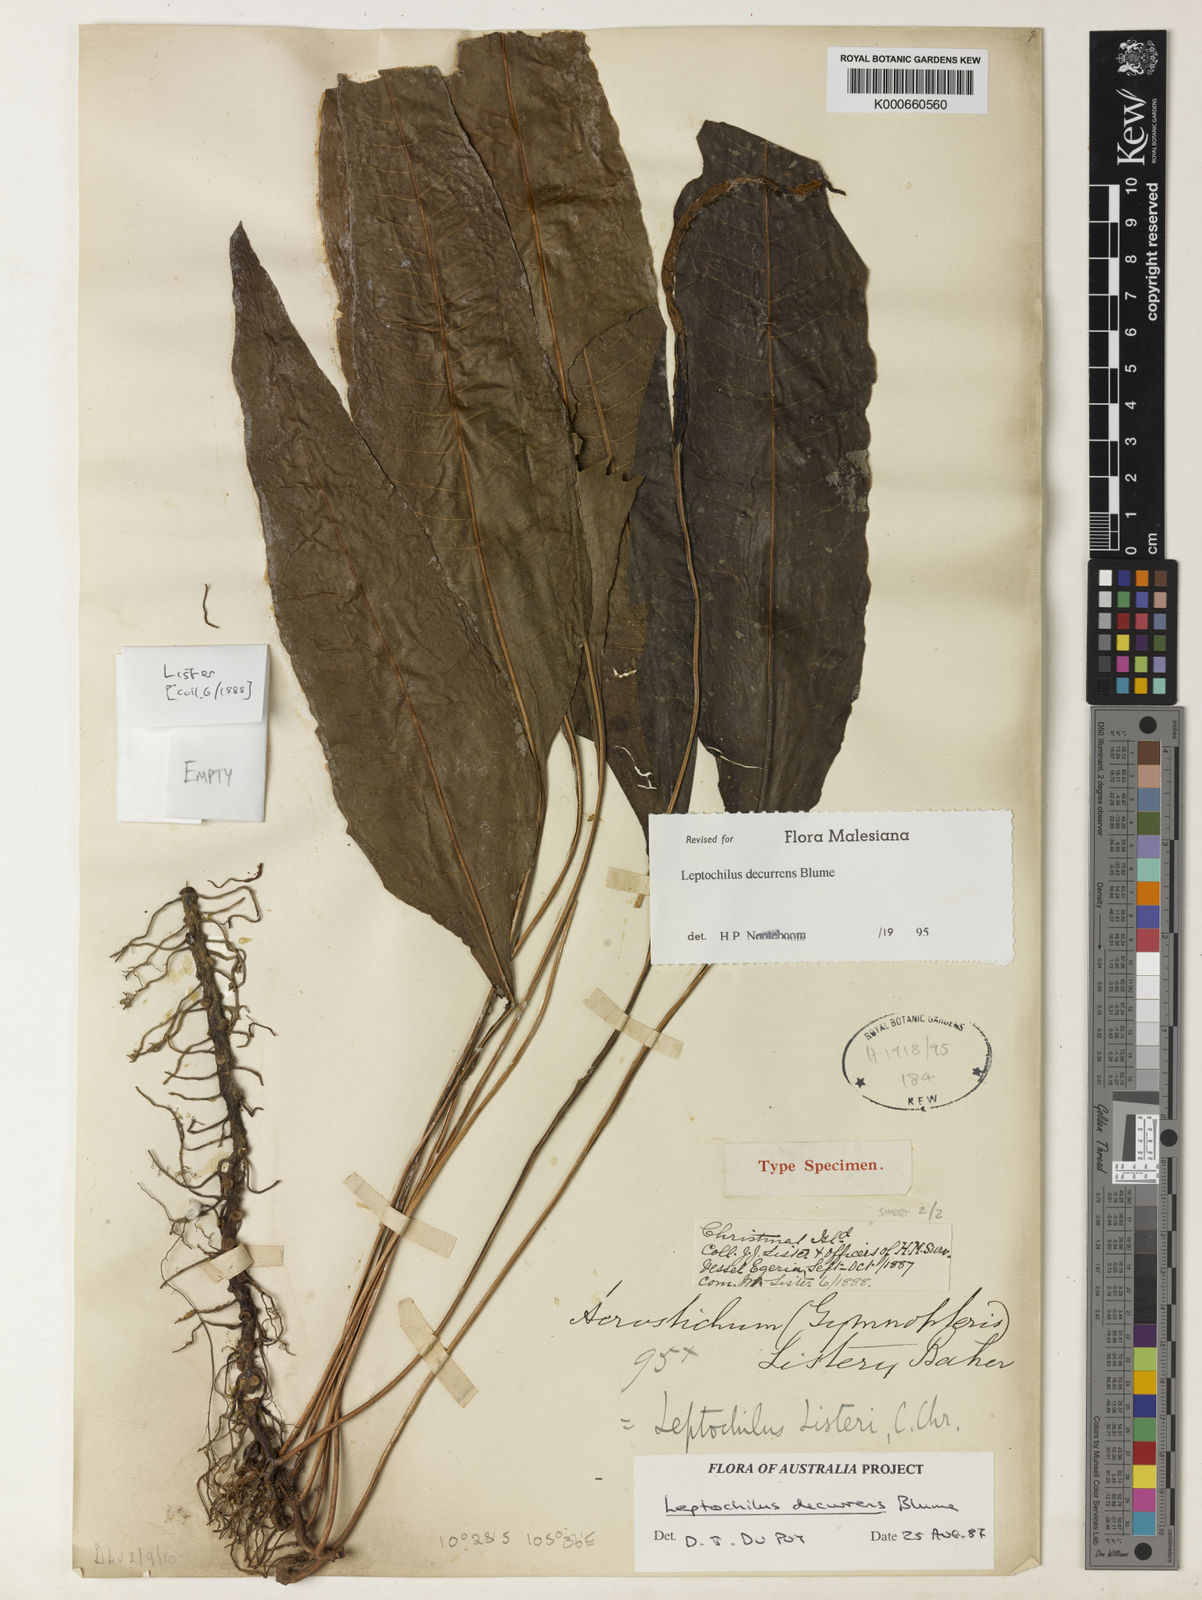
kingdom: Plantae
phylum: Tracheophyta
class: Polypodiopsida
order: Polypodiales
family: Polypodiaceae
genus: Leptochilus
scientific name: Leptochilus decurrens
